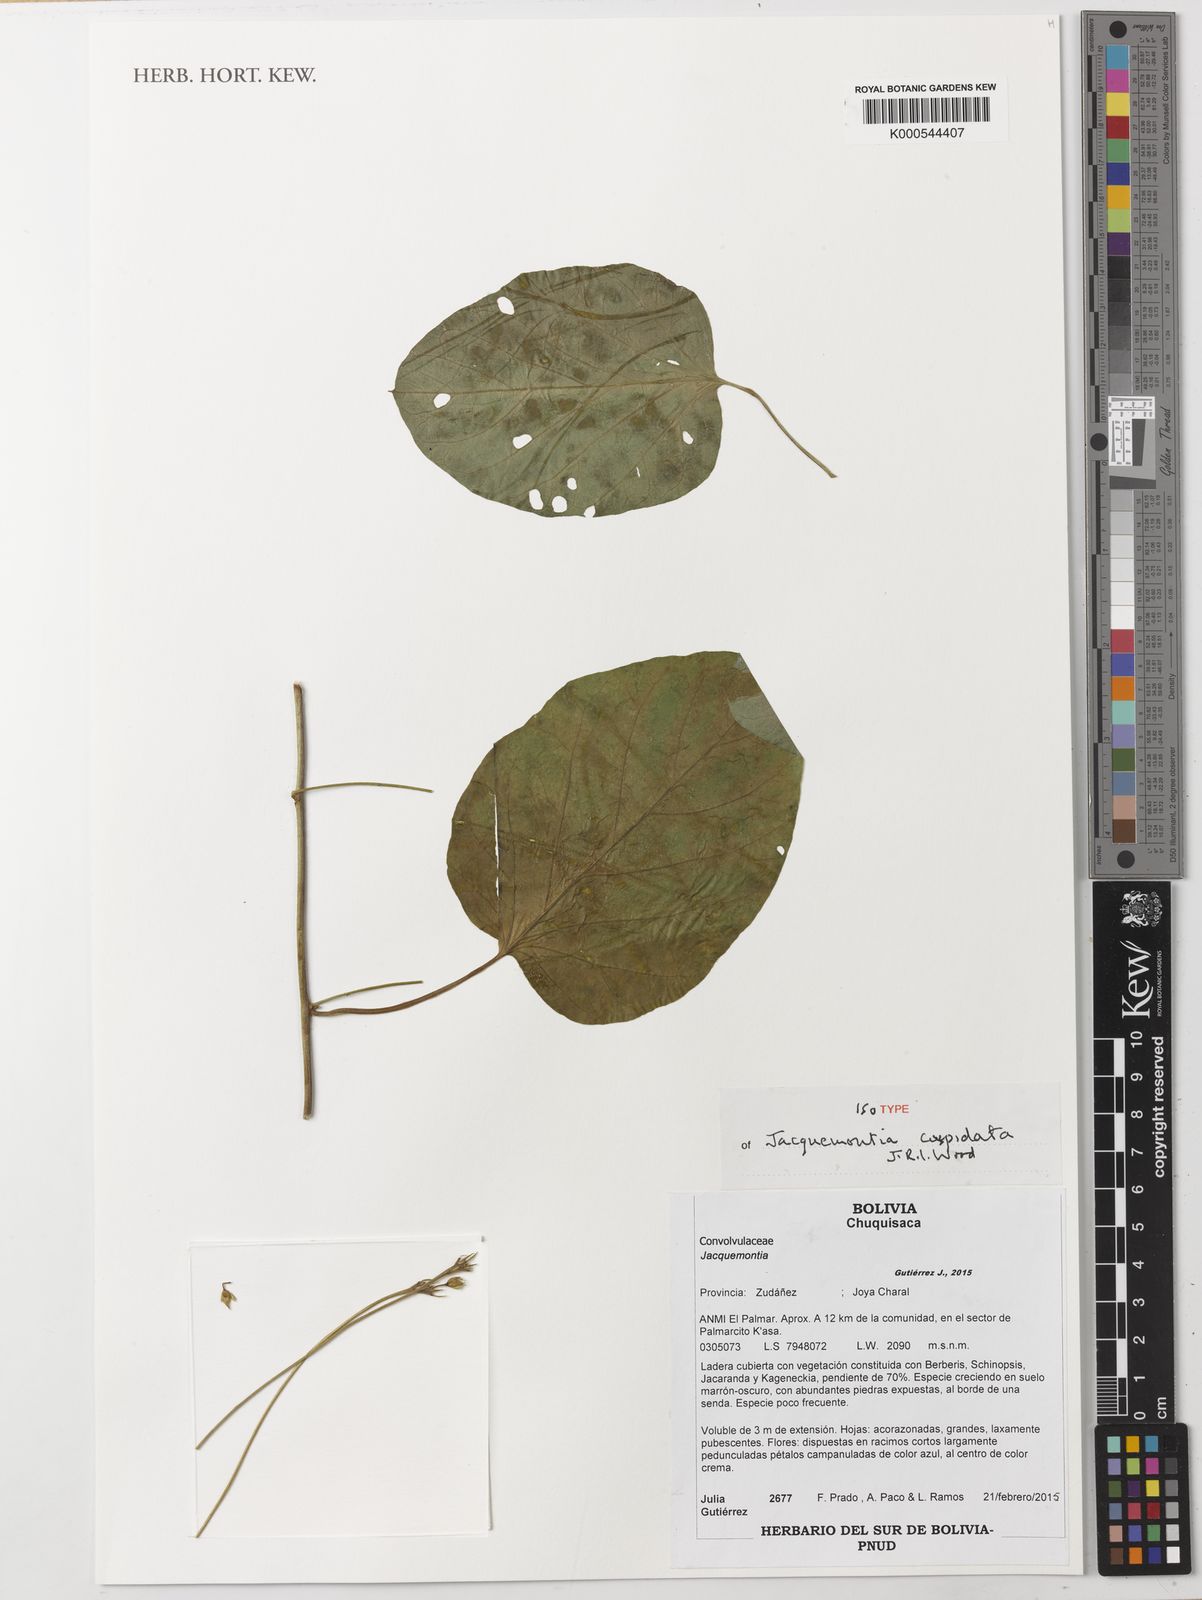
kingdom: Plantae
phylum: Tracheophyta
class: Magnoliopsida
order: Solanales
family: Convolvulaceae
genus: Jacquemontia
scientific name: Jacquemontia
